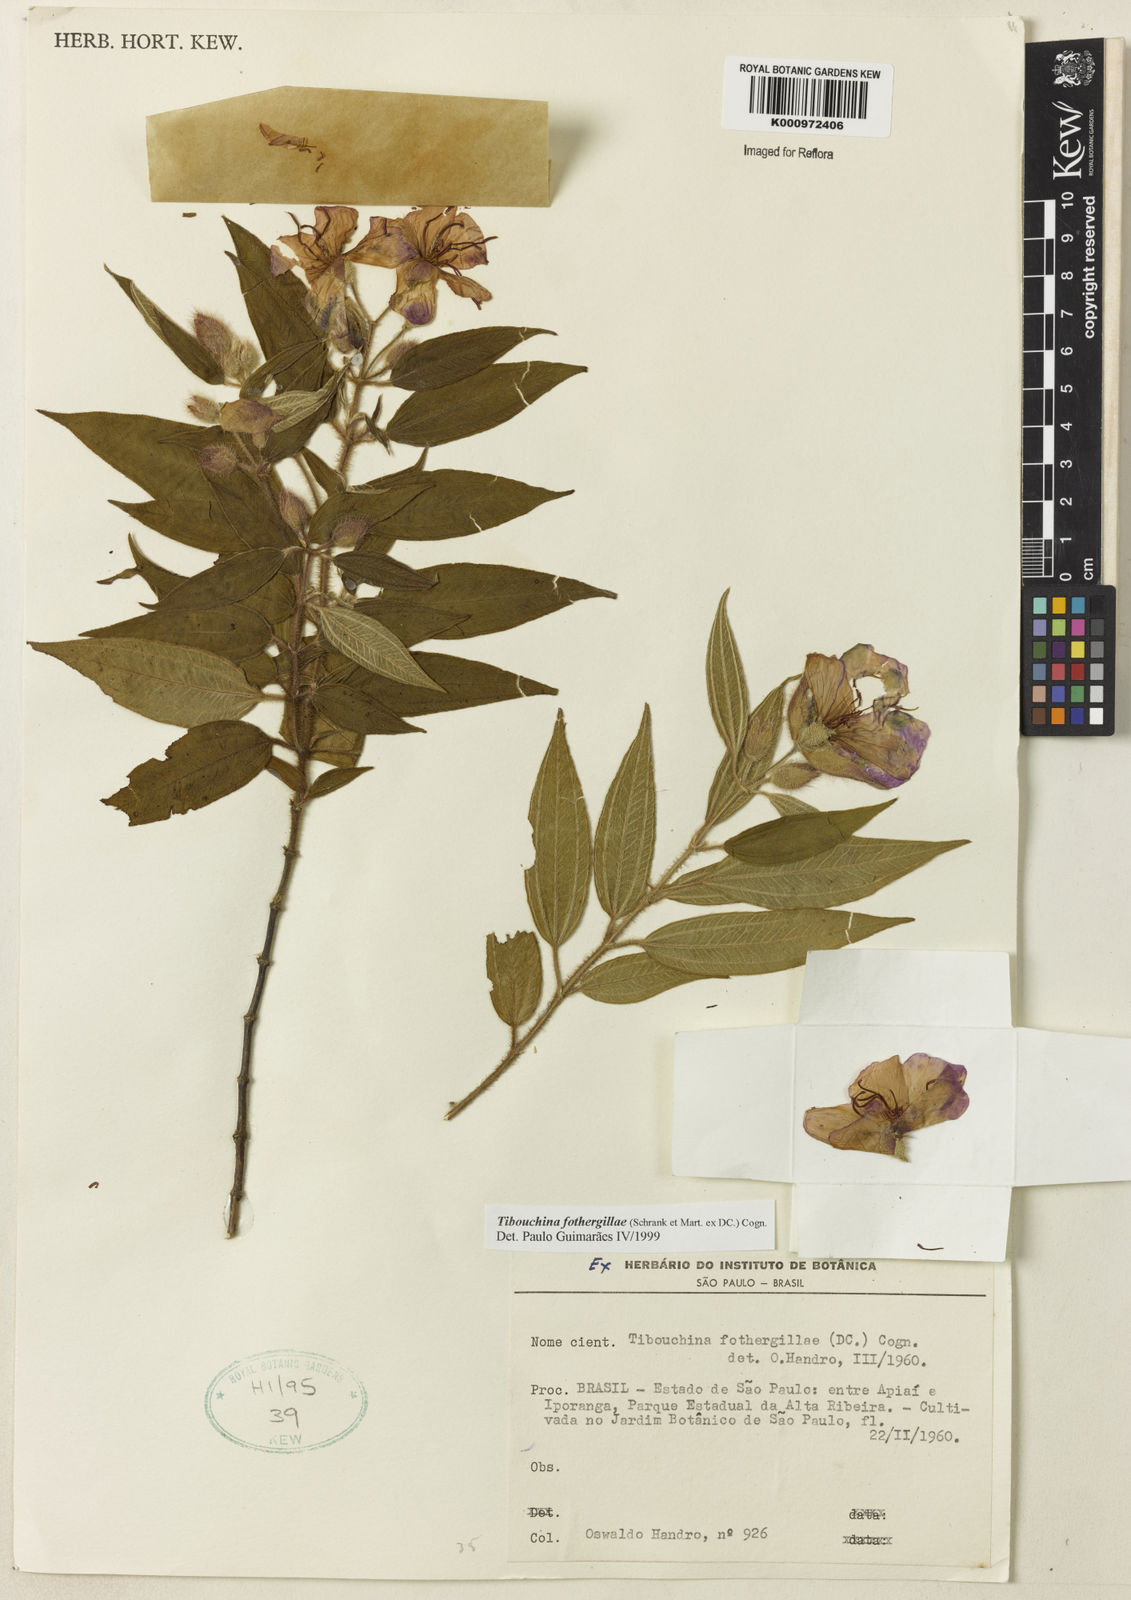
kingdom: Plantae
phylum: Tracheophyta
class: Magnoliopsida
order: Myrtales
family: Melastomataceae
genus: Pleroma
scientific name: Pleroma fothergillae
